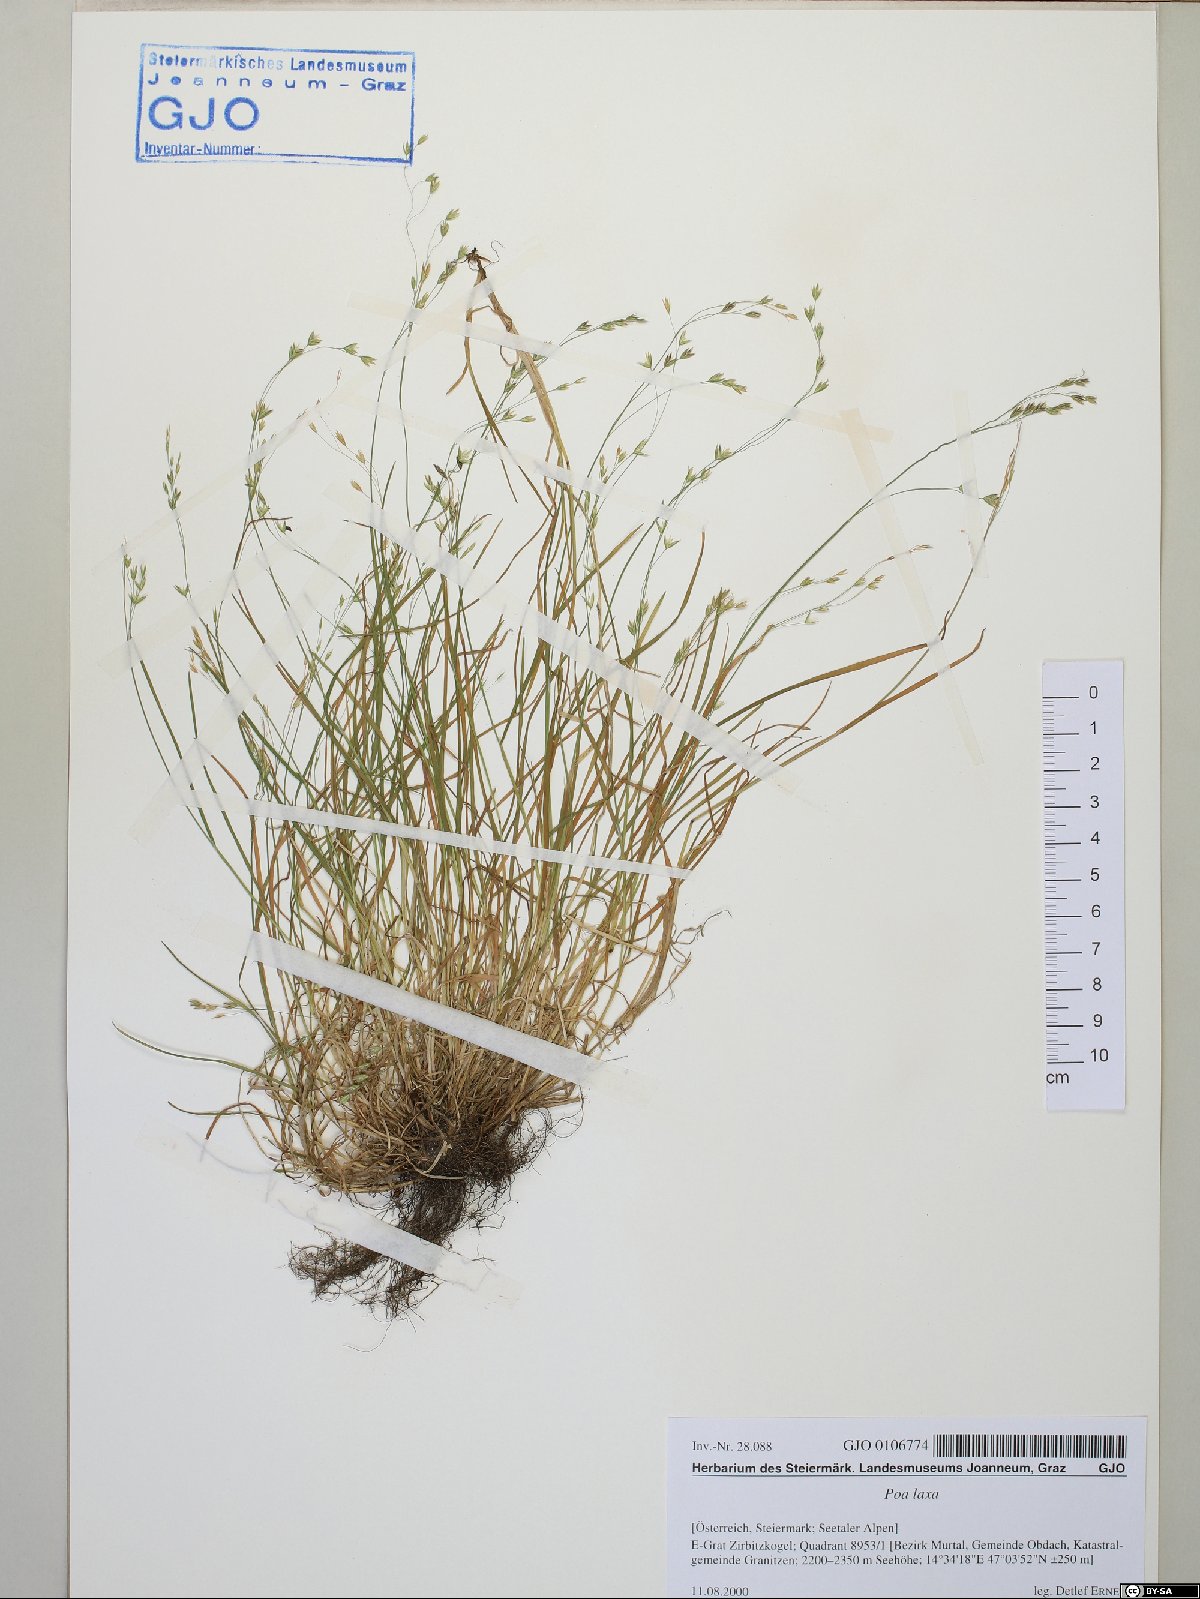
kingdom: Plantae
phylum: Tracheophyta
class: Liliopsida
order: Poales
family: Poaceae
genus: Poa
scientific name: Poa laxa
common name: Lax bluegrass
